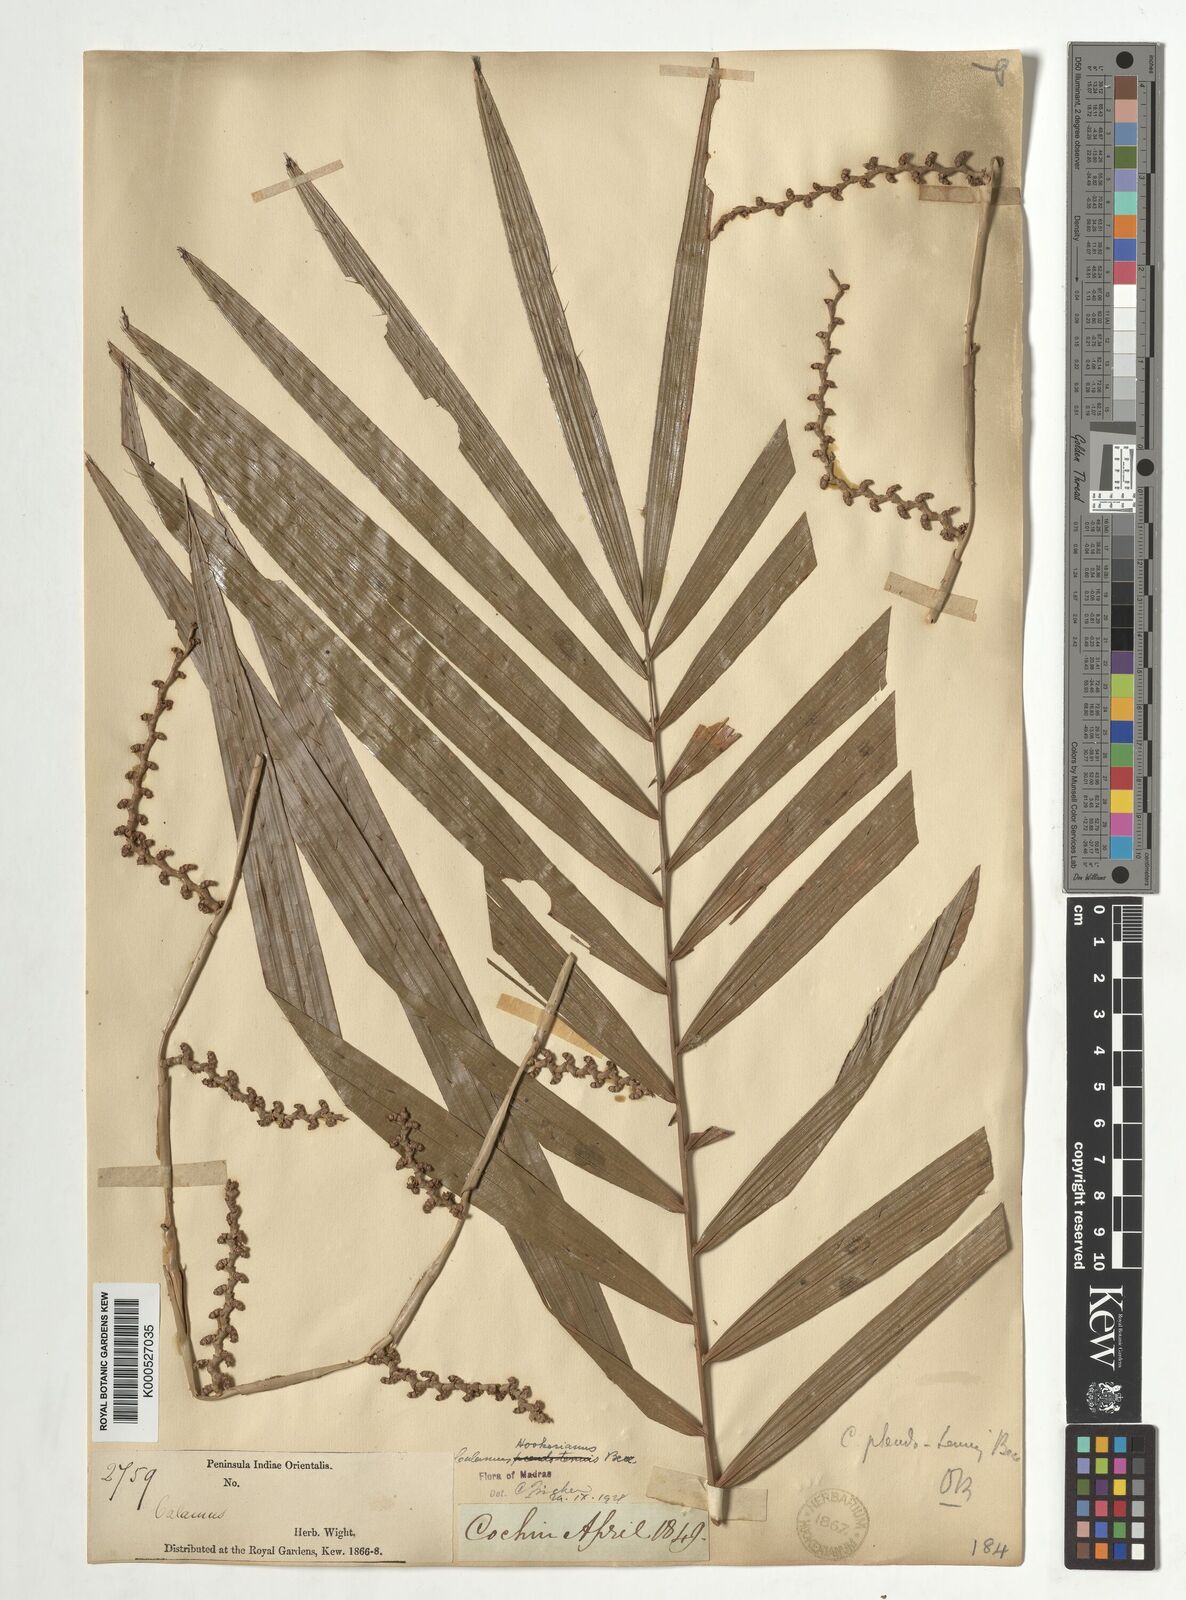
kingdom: Plantae
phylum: Tracheophyta
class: Liliopsida
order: Arecales
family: Arecaceae
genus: Calamus
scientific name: Calamus hookerianus
